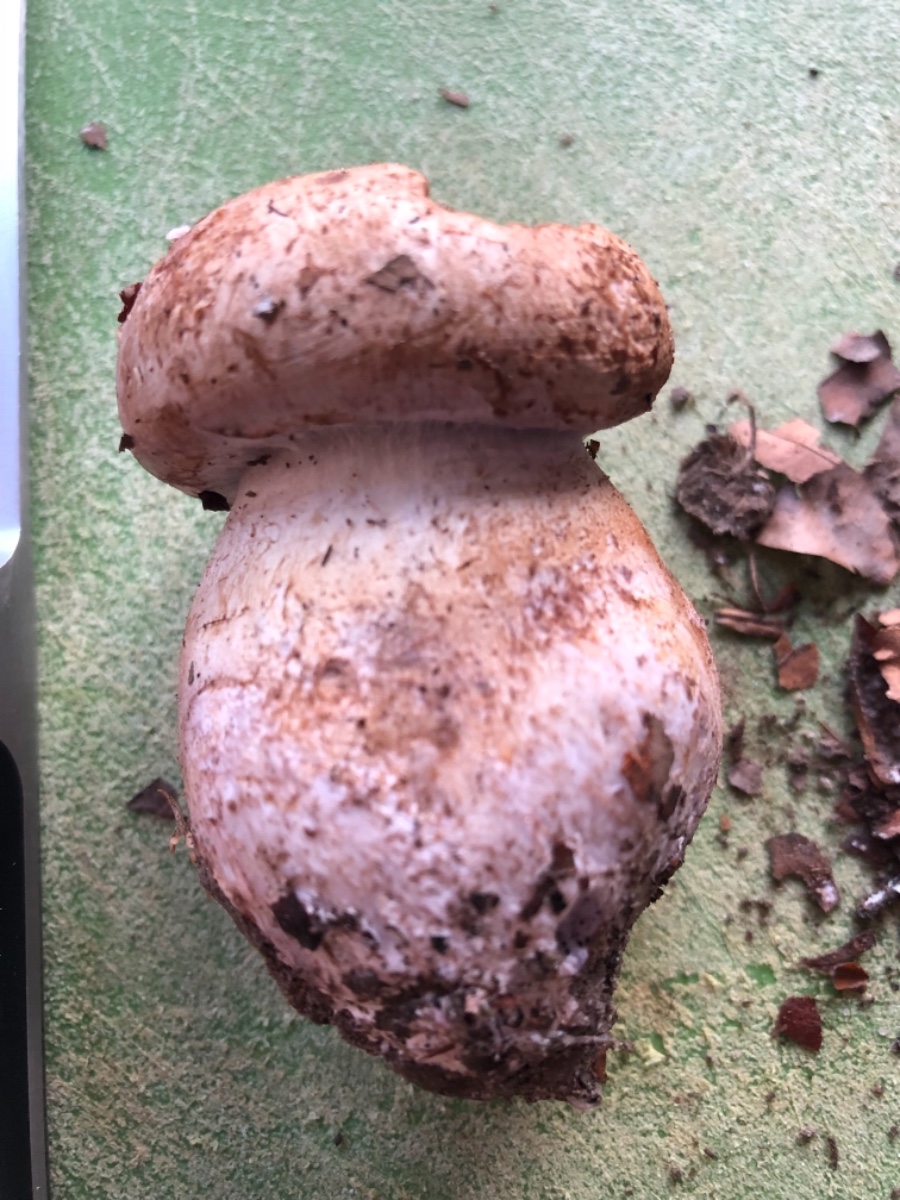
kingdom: Fungi
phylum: Basidiomycota
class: Agaricomycetes
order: Agaricales
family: Cortinariaceae
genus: Cortinarius
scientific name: Cortinarius largus
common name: violetrandet slørhat
